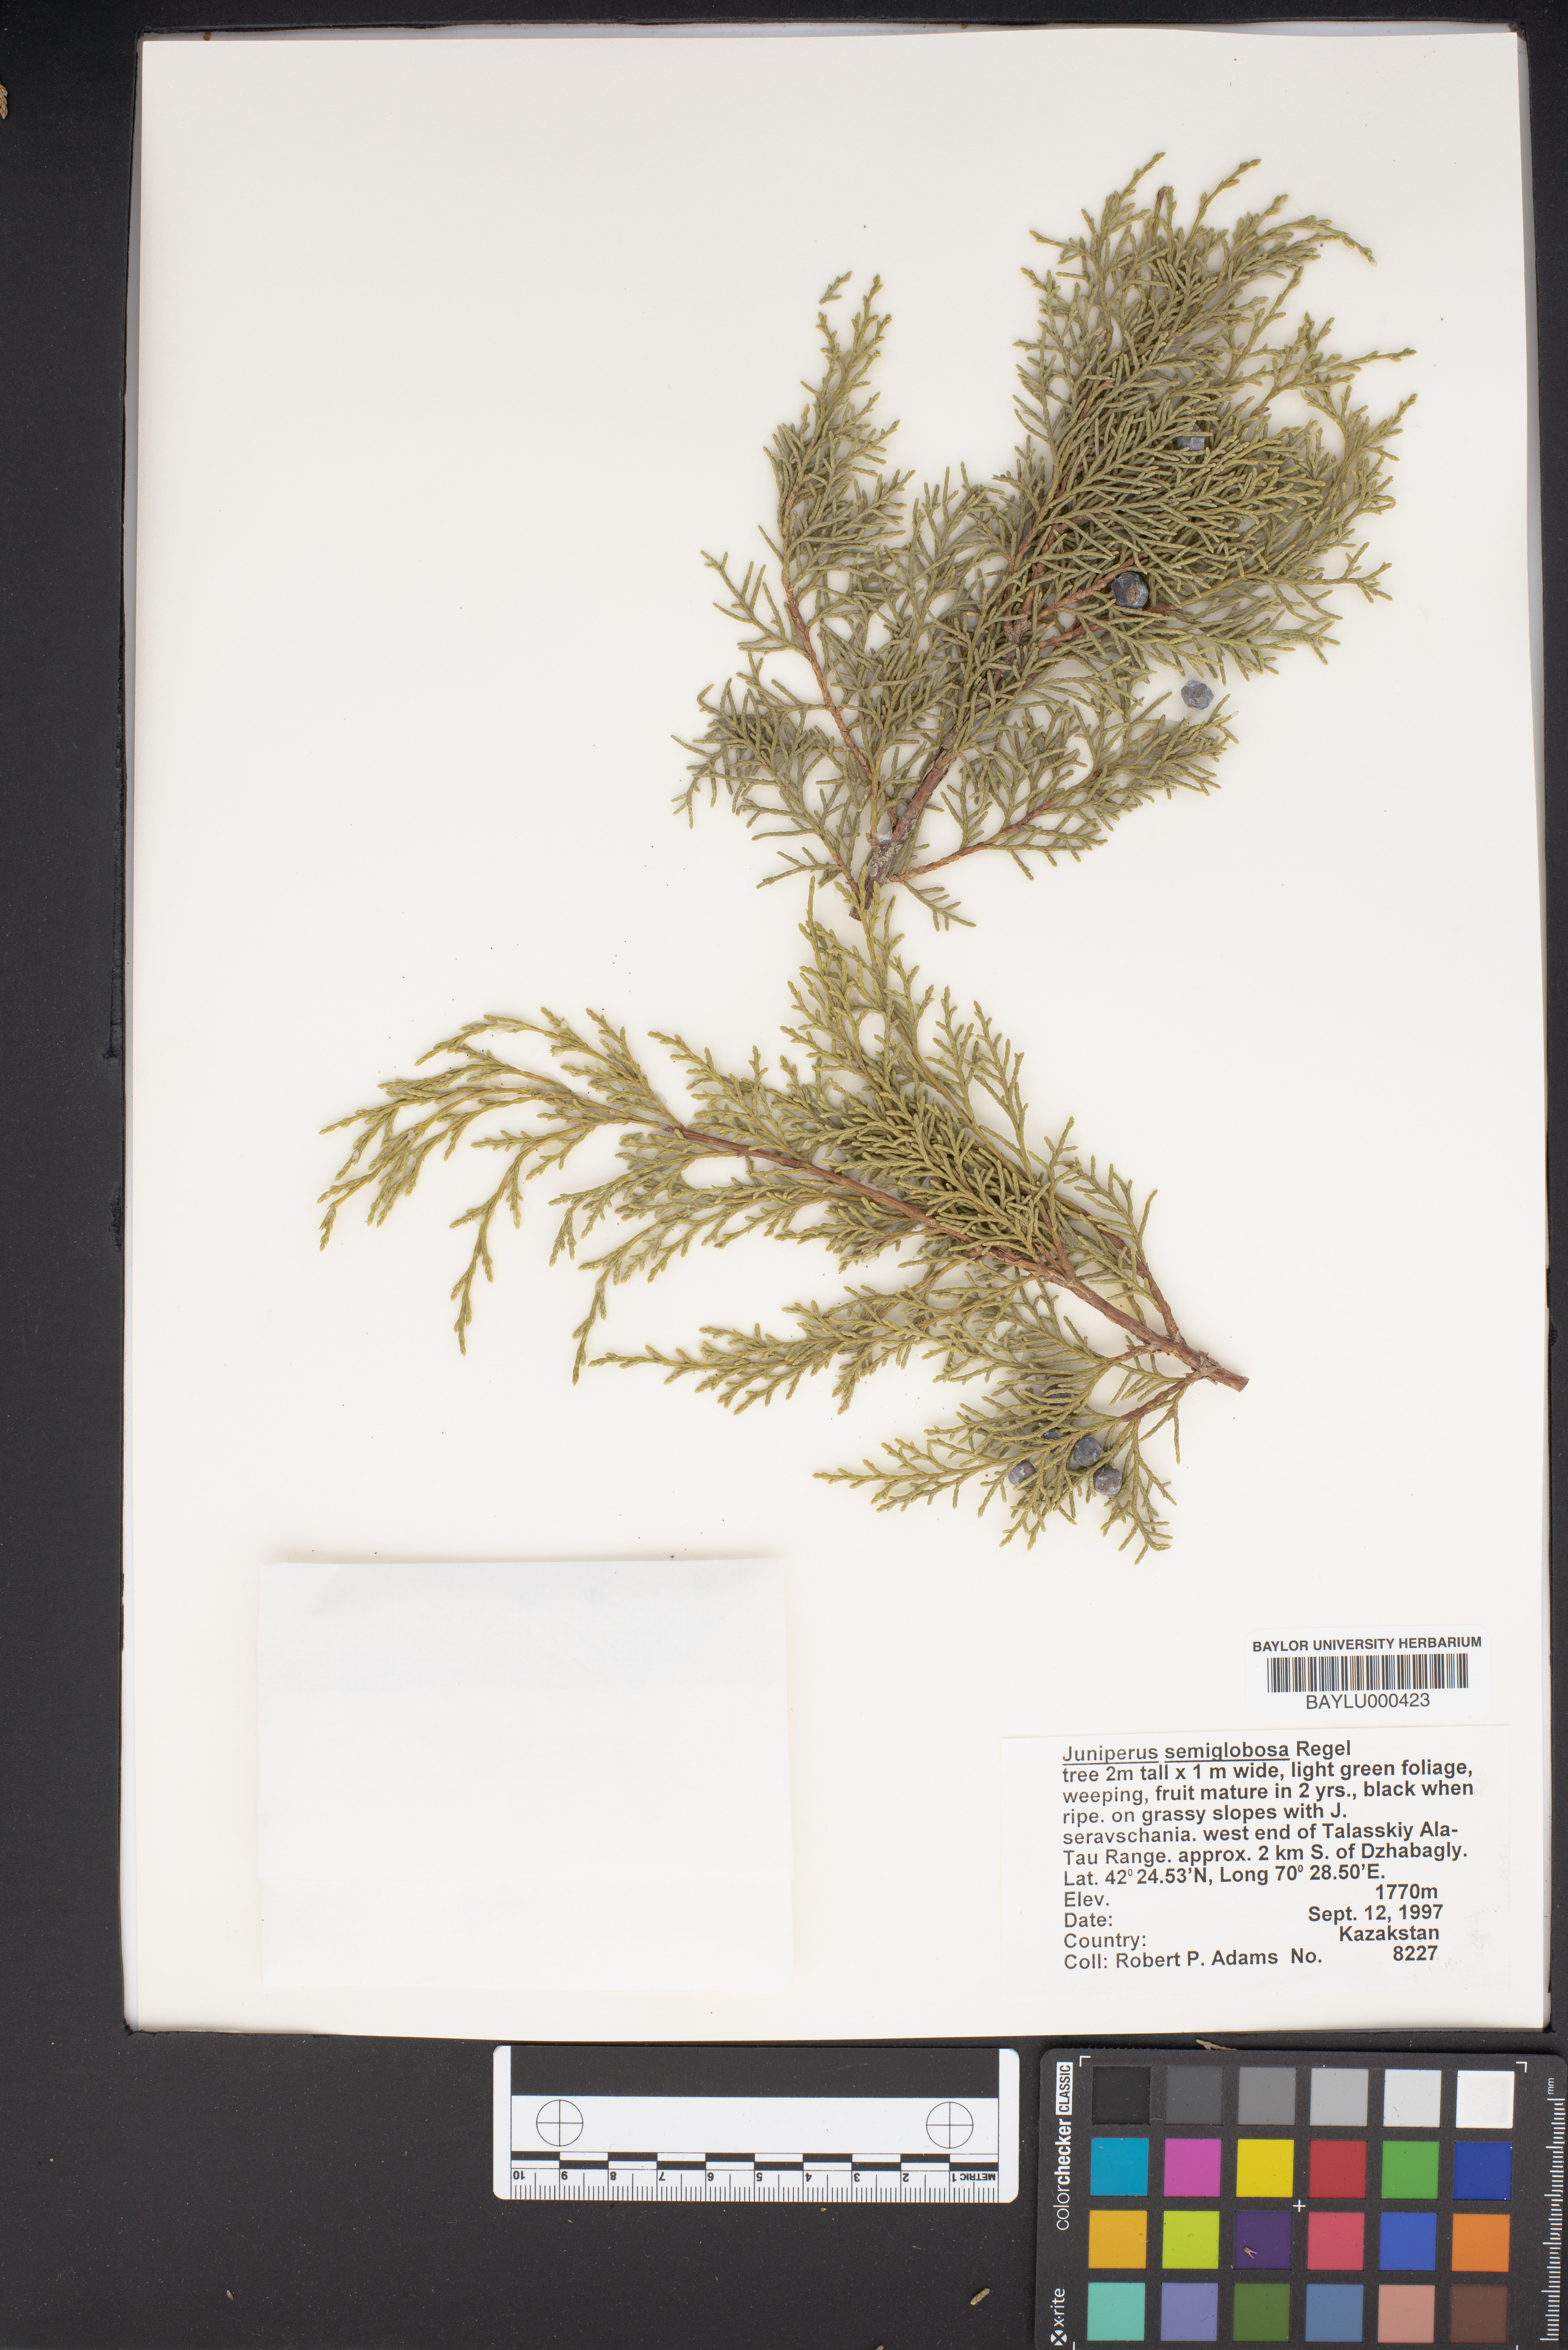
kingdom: Plantae
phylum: Tracheophyta
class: Pinopsida
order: Pinales
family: Cupressaceae
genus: Juniperus
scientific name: Juniperus semiglobosa
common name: Pencil cedar
